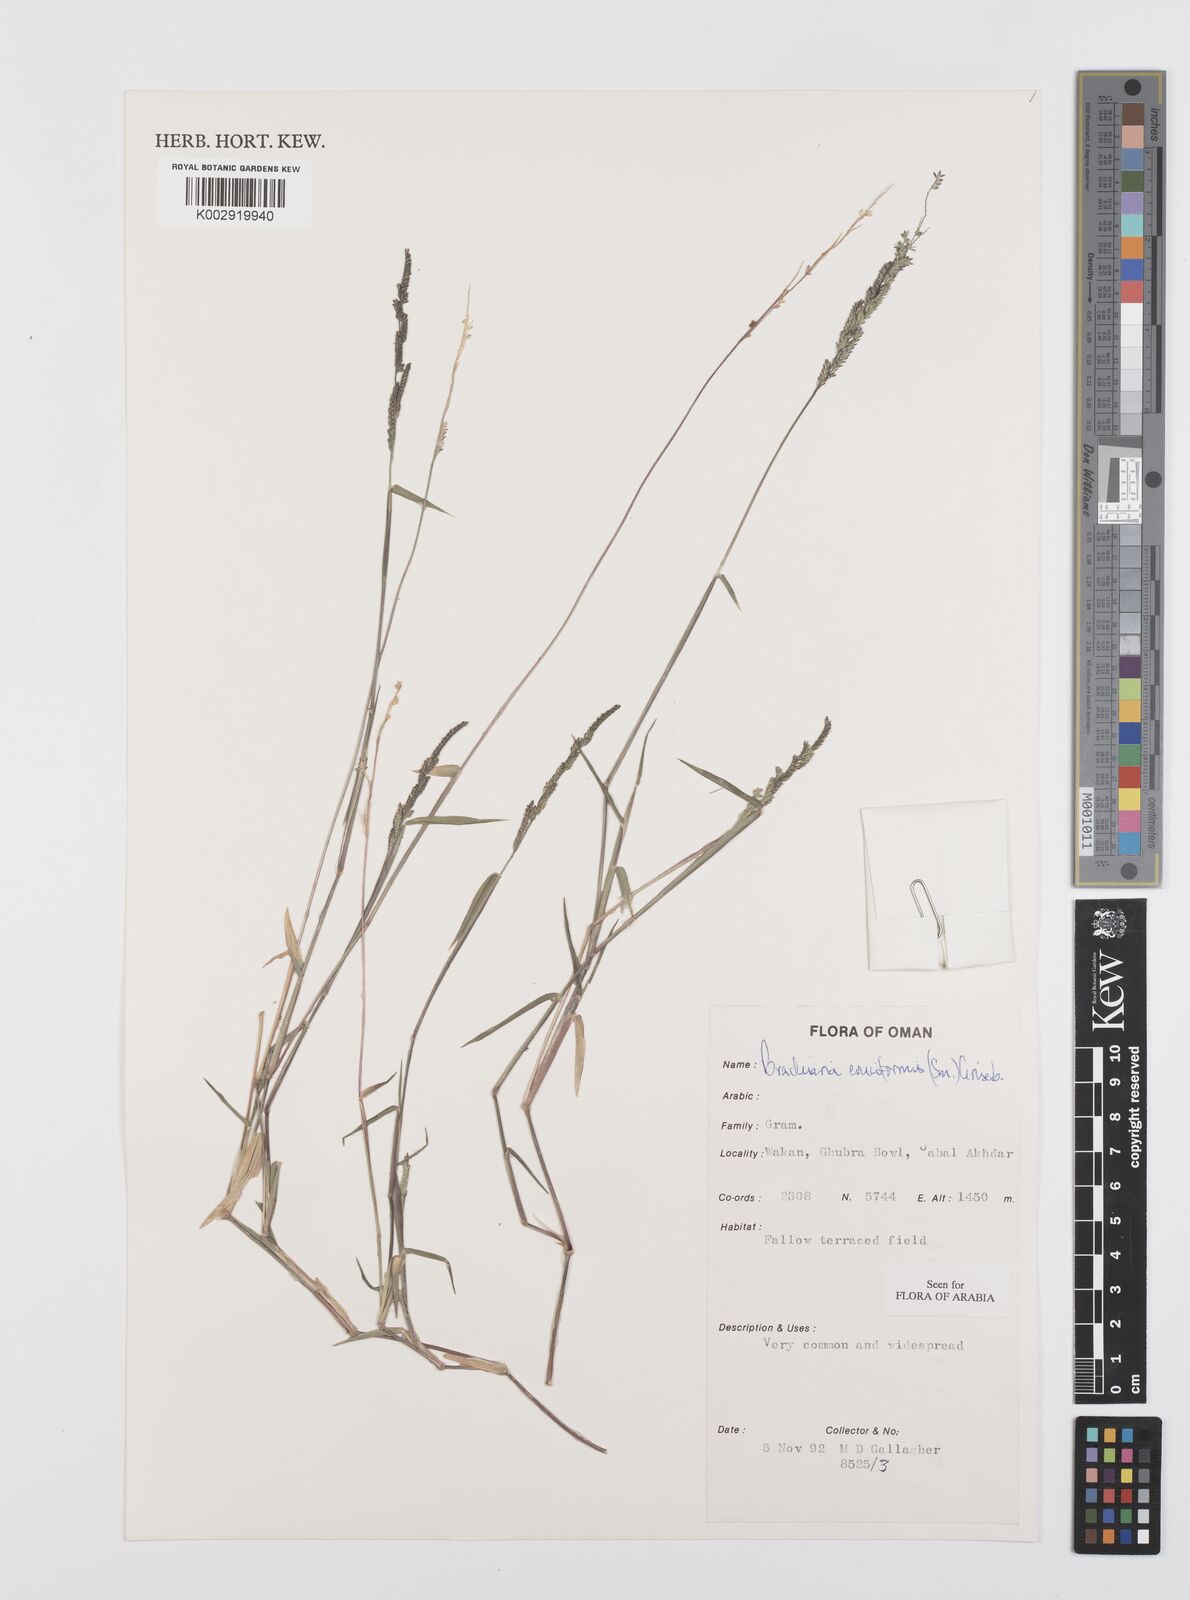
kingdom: Plantae
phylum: Tracheophyta
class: Liliopsida
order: Poales
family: Poaceae
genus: Moorochloa
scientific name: Moorochloa eruciformis
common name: Sweet signalgrass
